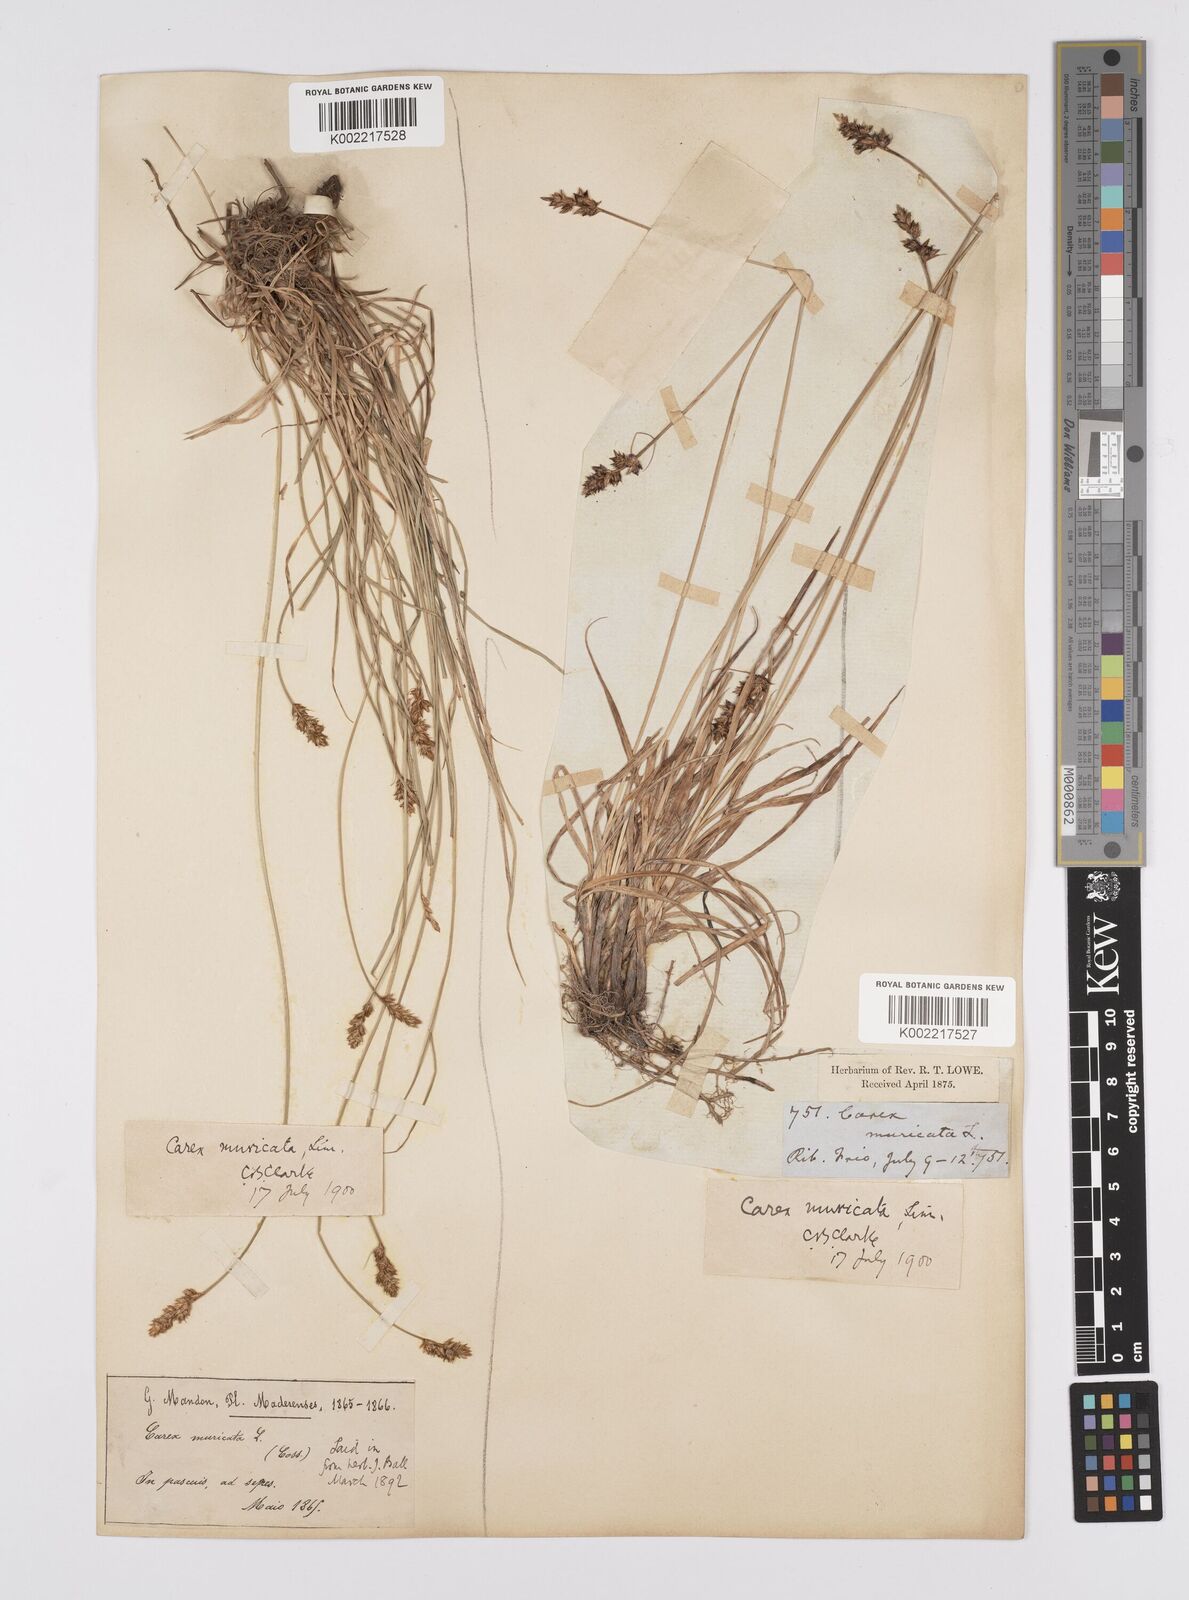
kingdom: Plantae
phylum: Tracheophyta
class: Liliopsida
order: Poales
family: Cyperaceae
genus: Carex
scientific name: Carex muricata
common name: Rough sedge
